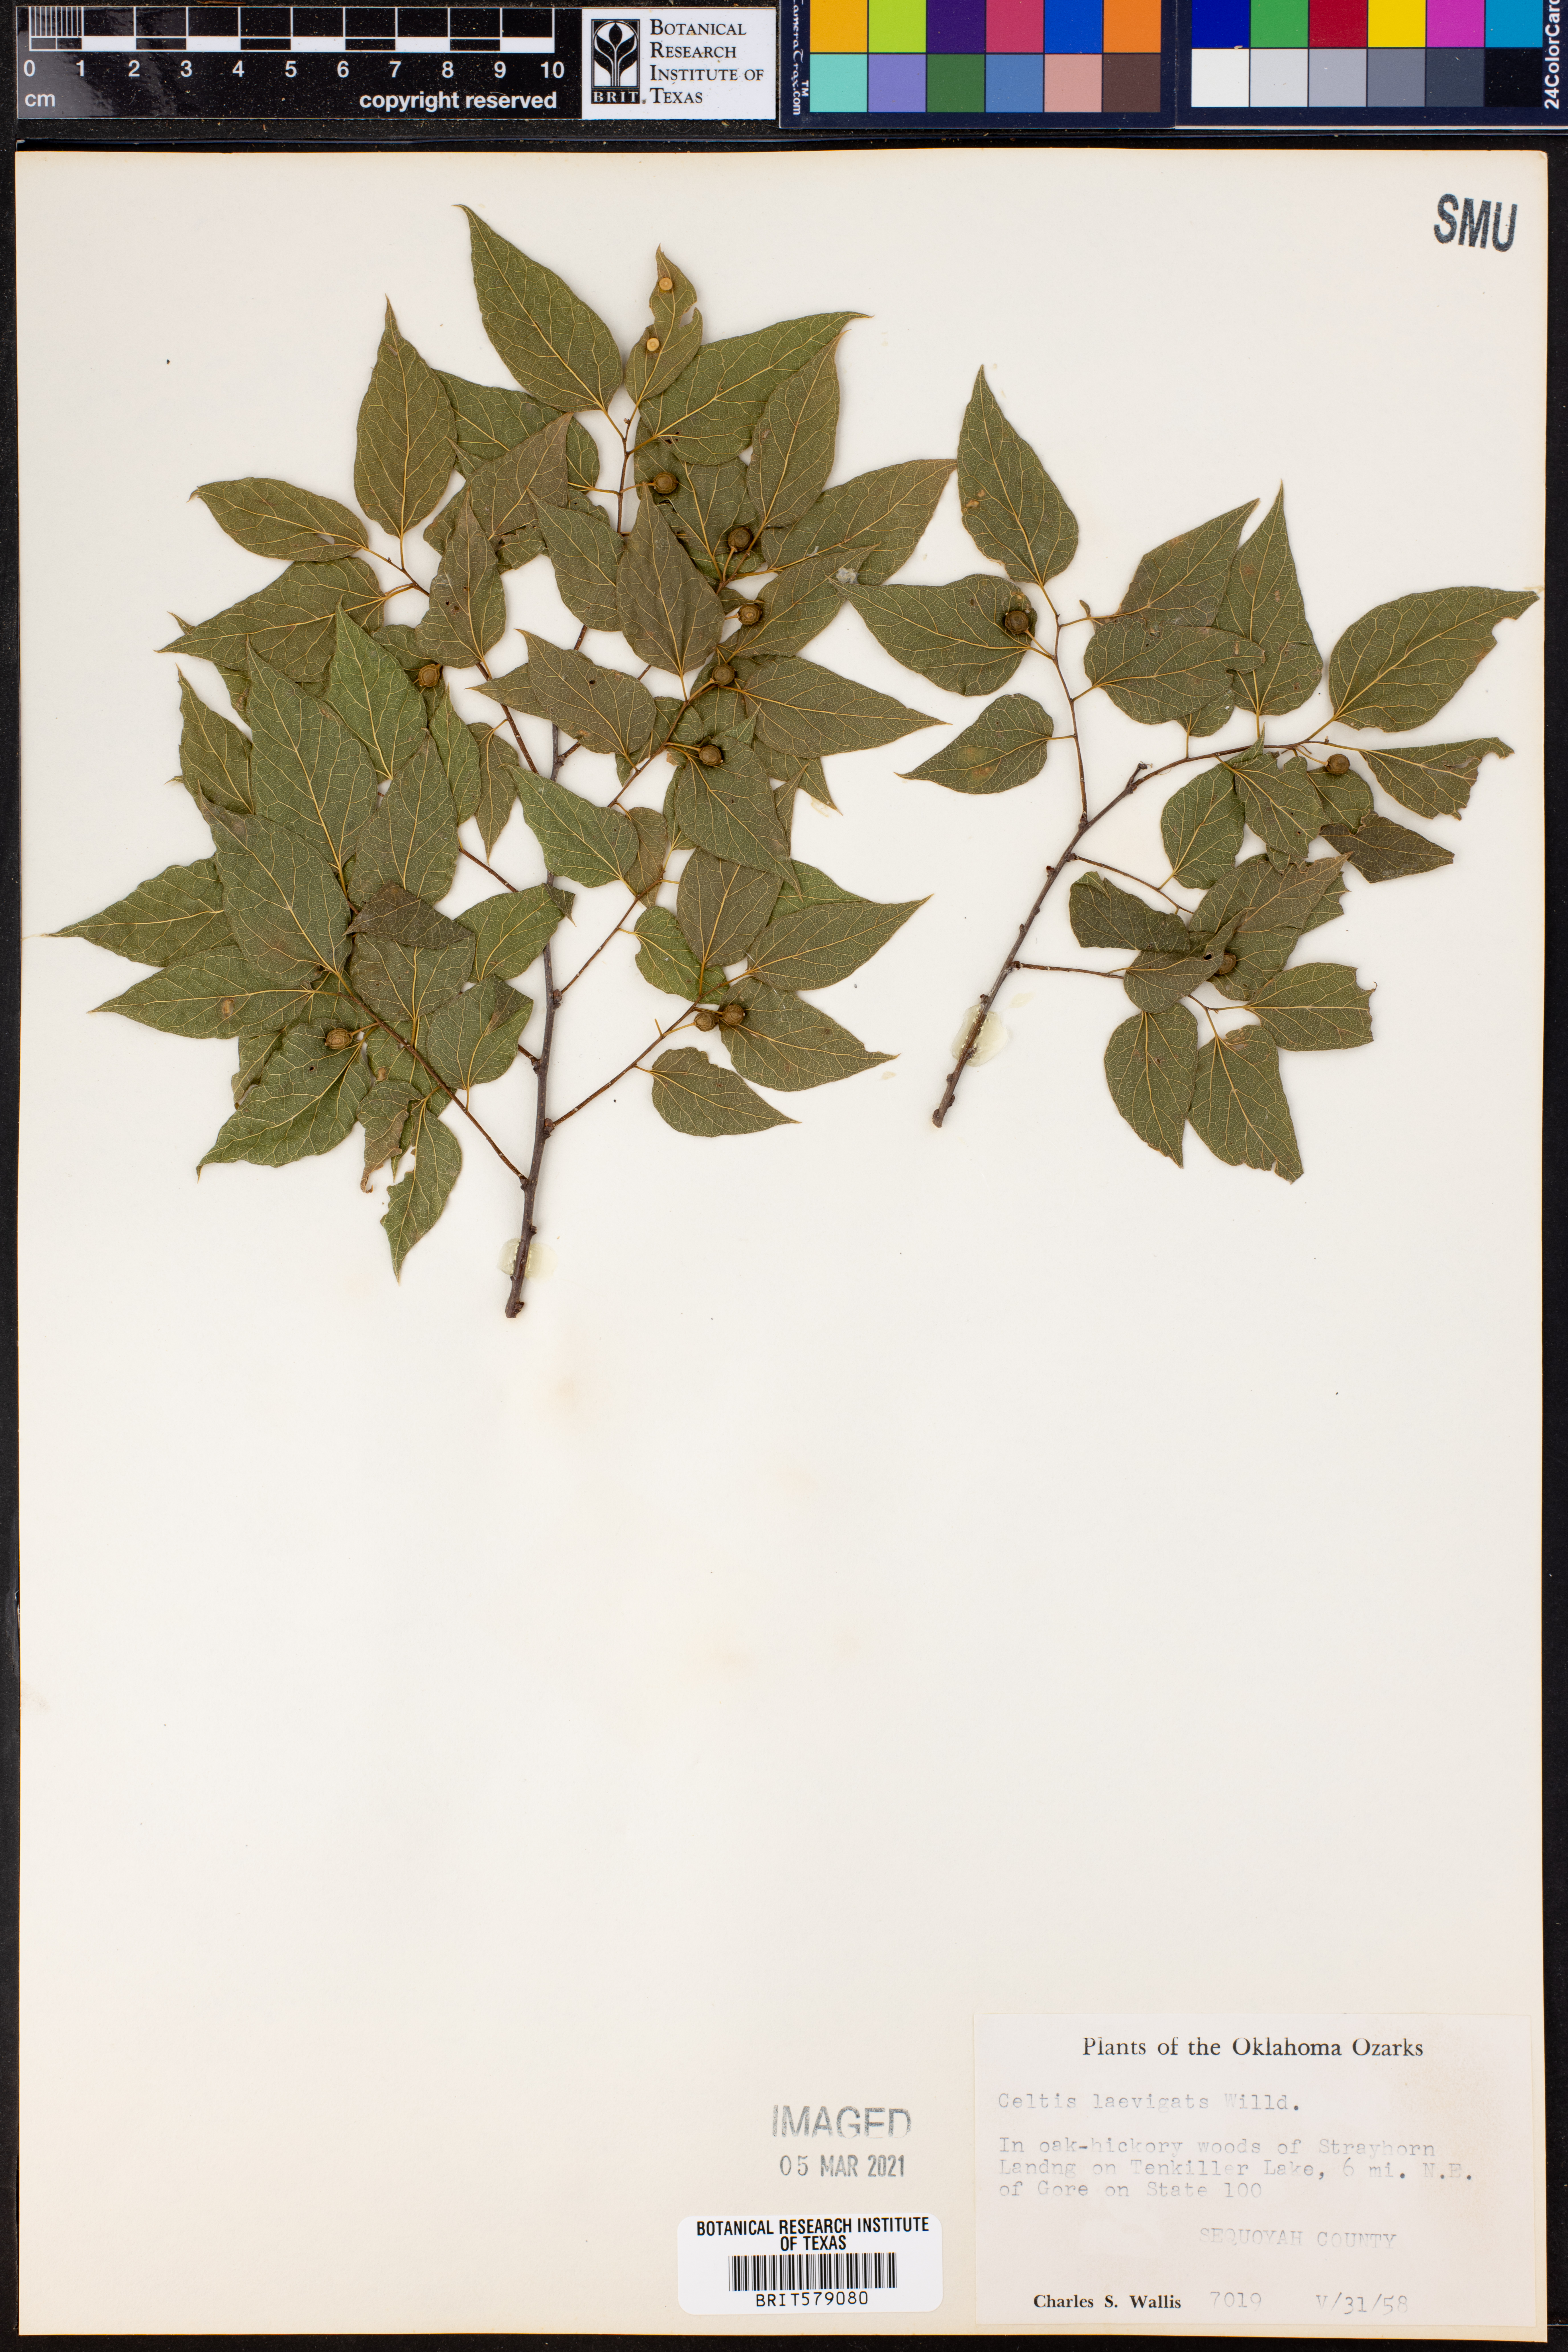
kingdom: Plantae
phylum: Tracheophyta
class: Magnoliopsida
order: Rosales
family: Cannabaceae
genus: Celtis
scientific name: Celtis laevigata
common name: Sugarberry
